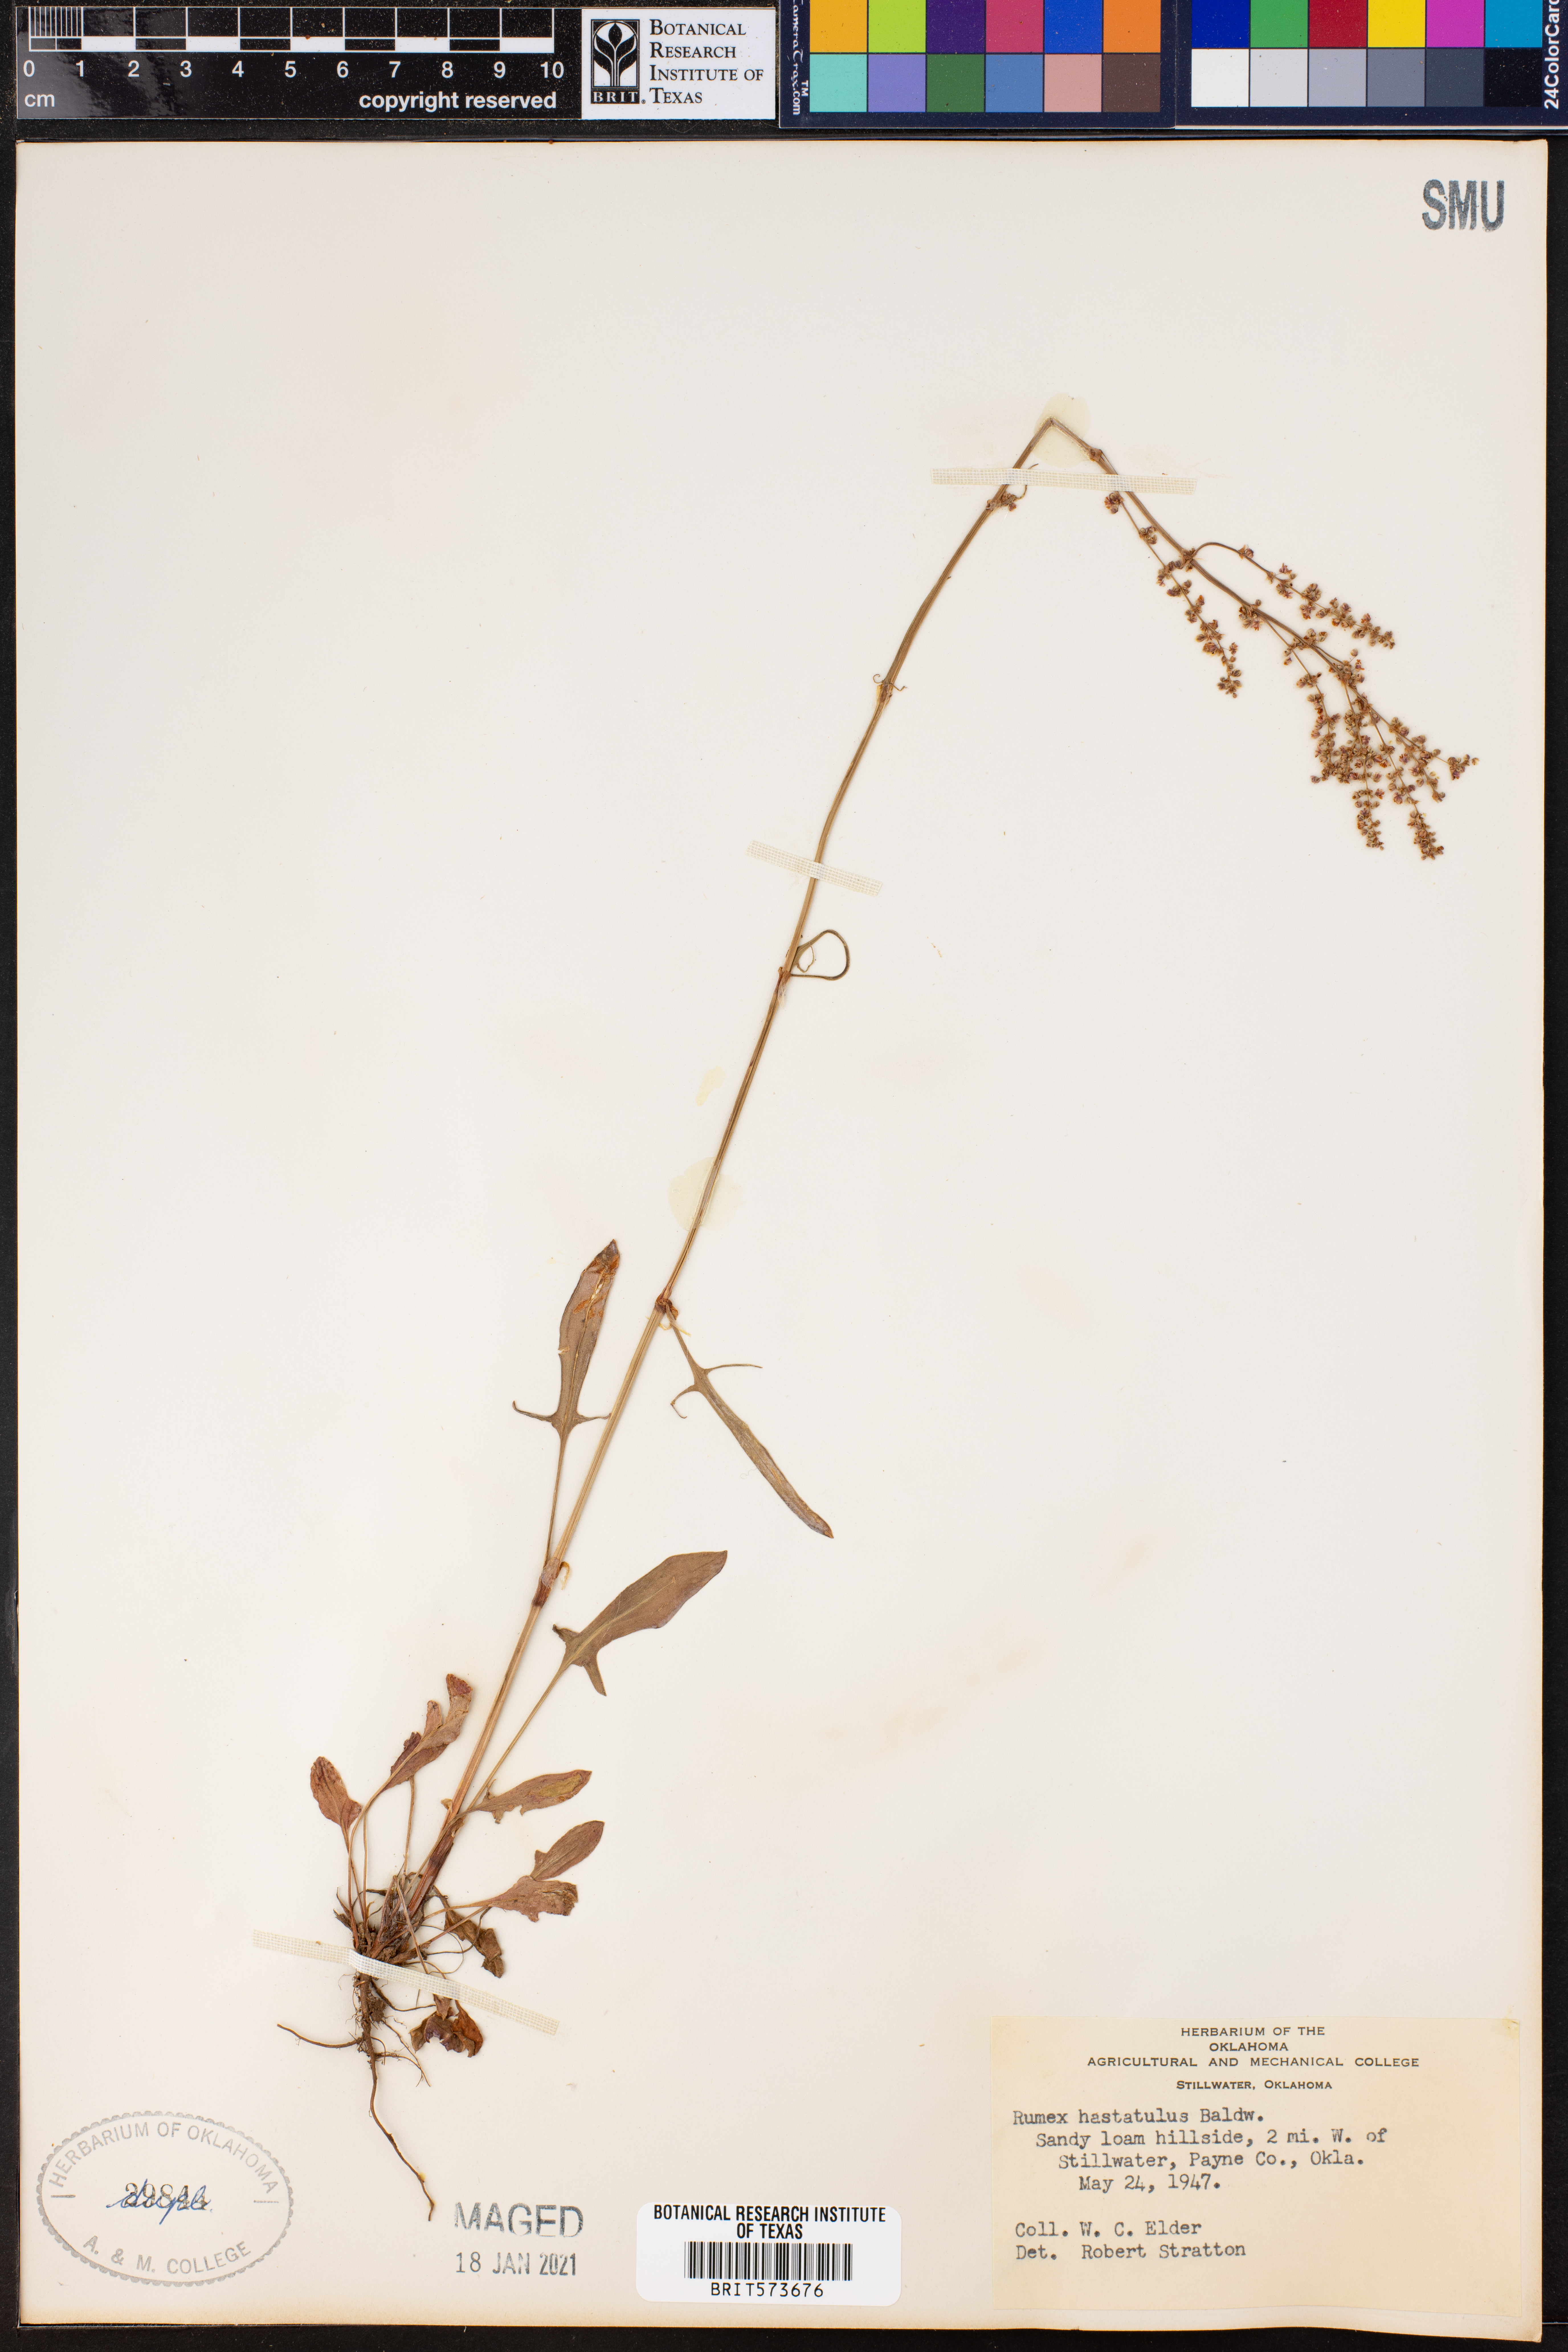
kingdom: Plantae
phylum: Tracheophyta
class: Magnoliopsida
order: Caryophyllales
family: Polygonaceae
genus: Rumex
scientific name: Rumex hastatulus
